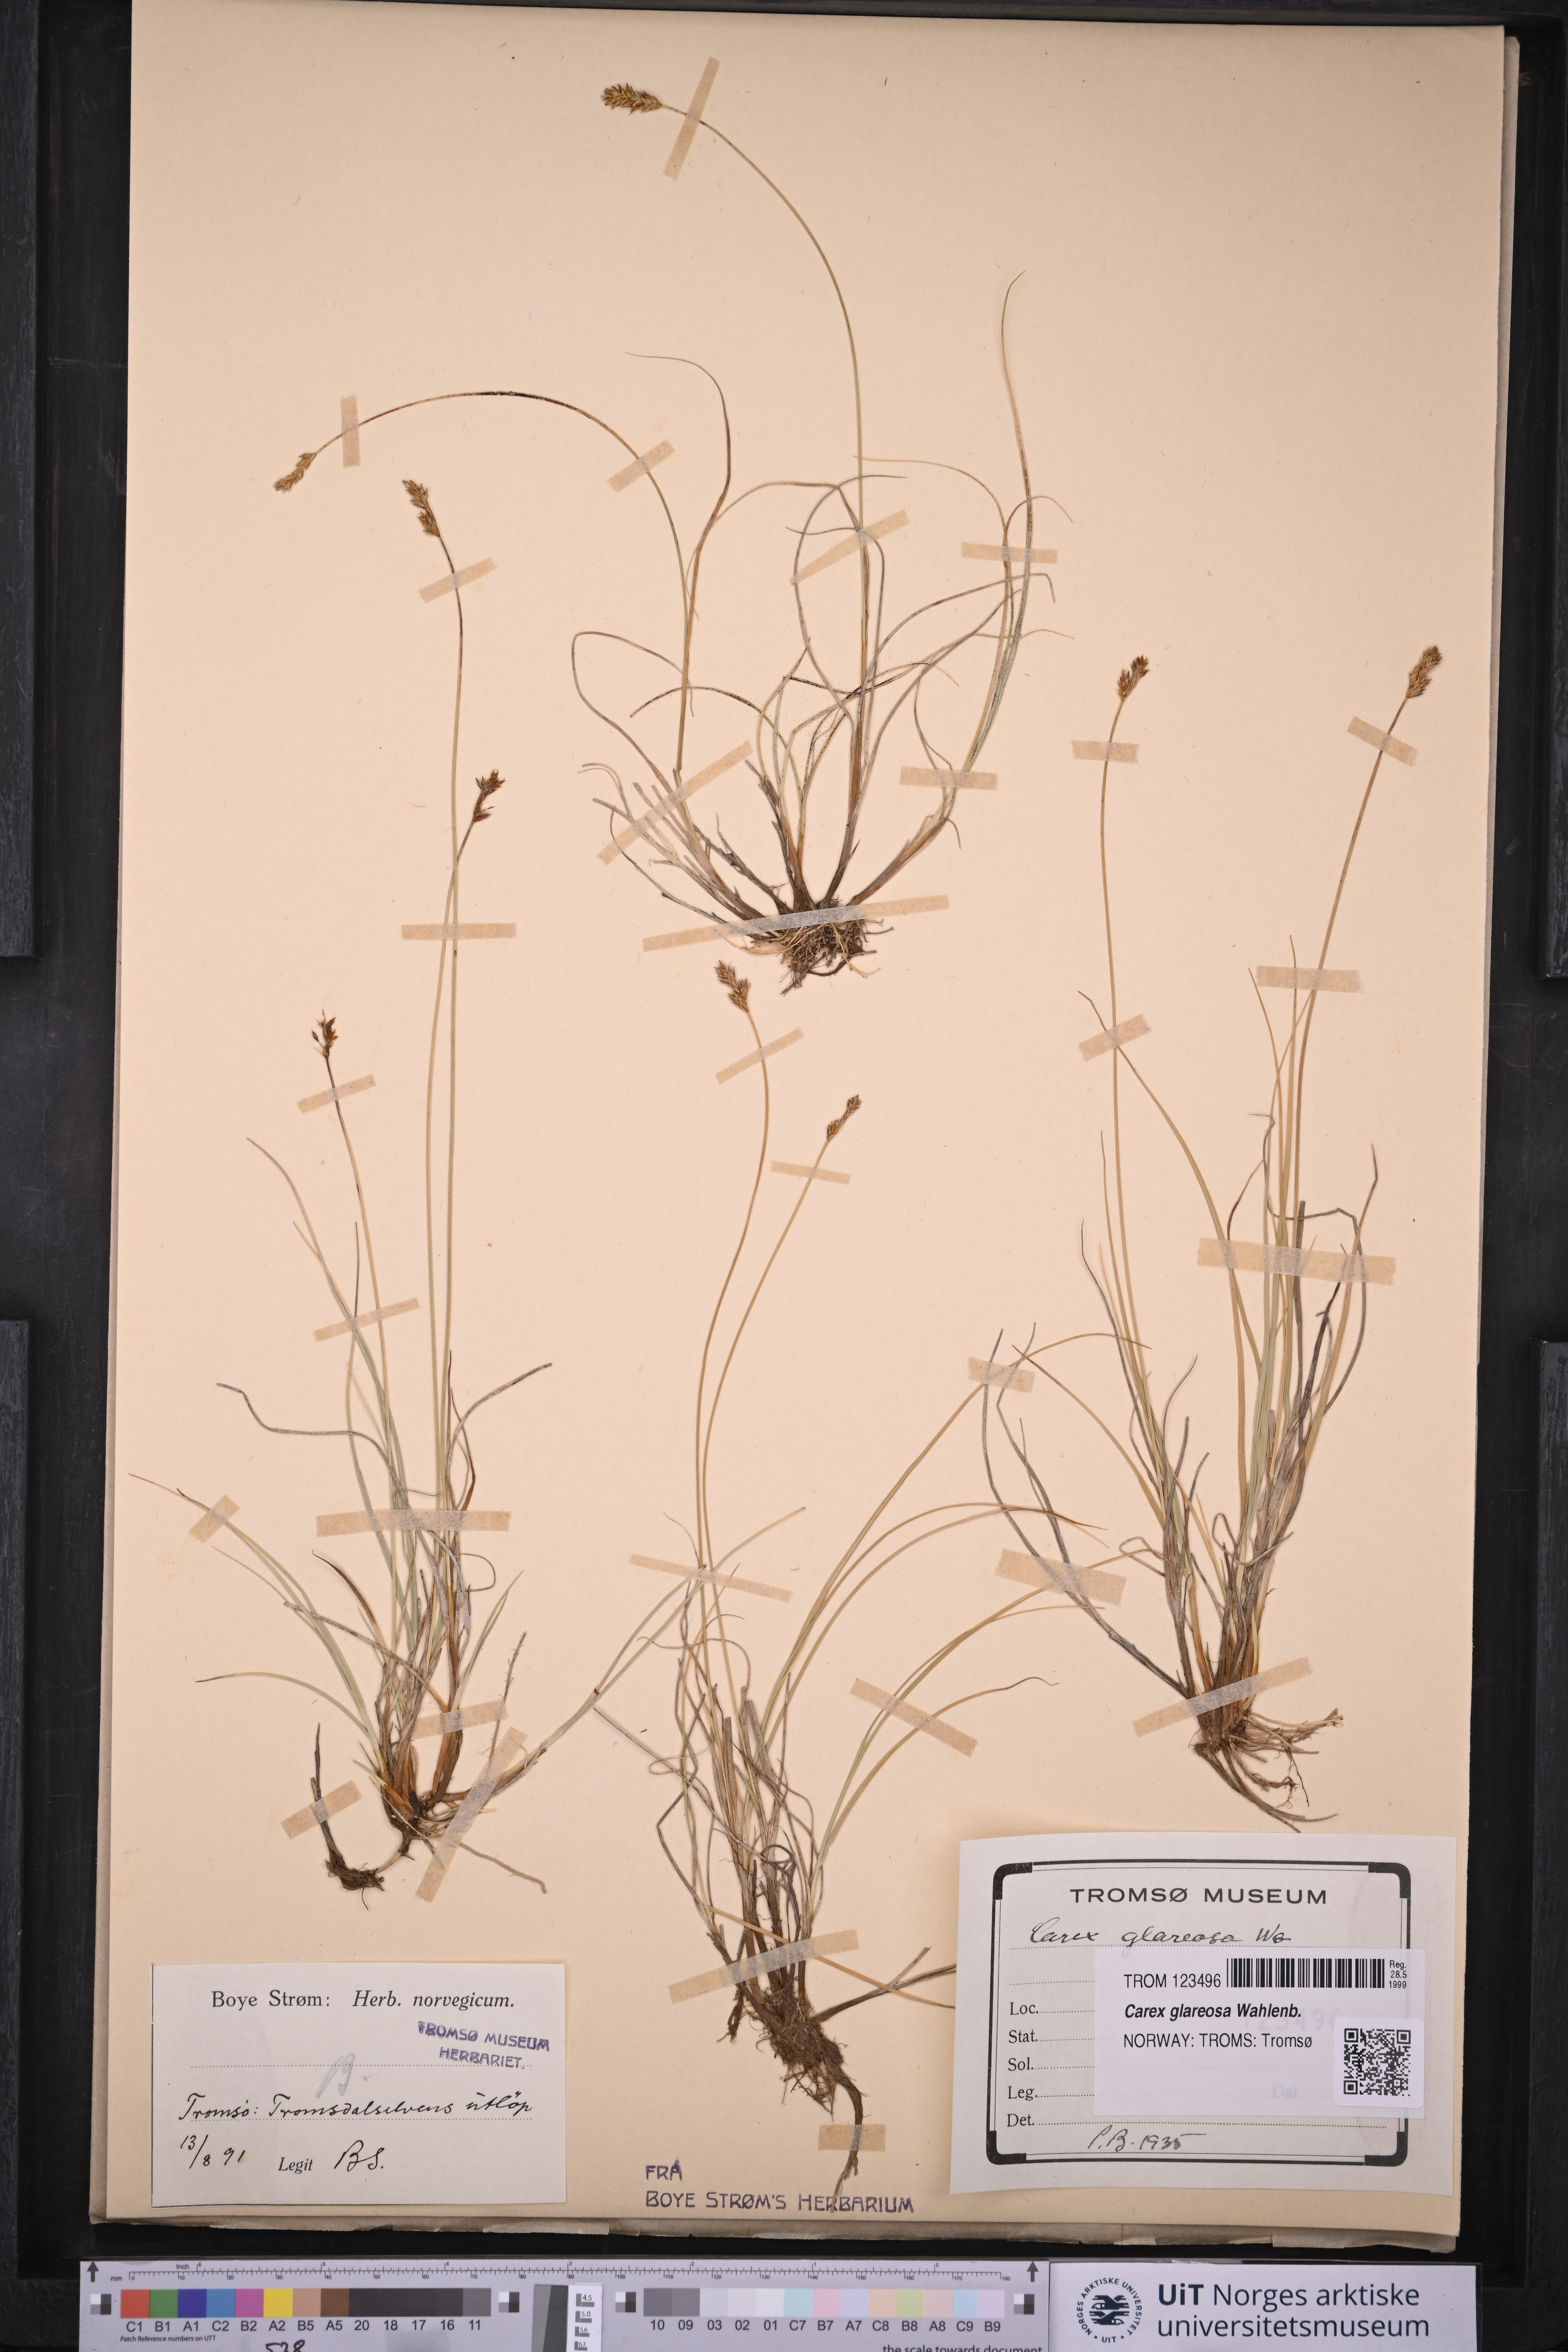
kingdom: Plantae
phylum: Tracheophyta
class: Liliopsida
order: Poales
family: Cyperaceae
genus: Carex
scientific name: Carex glareosa
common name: Clustered sedge
